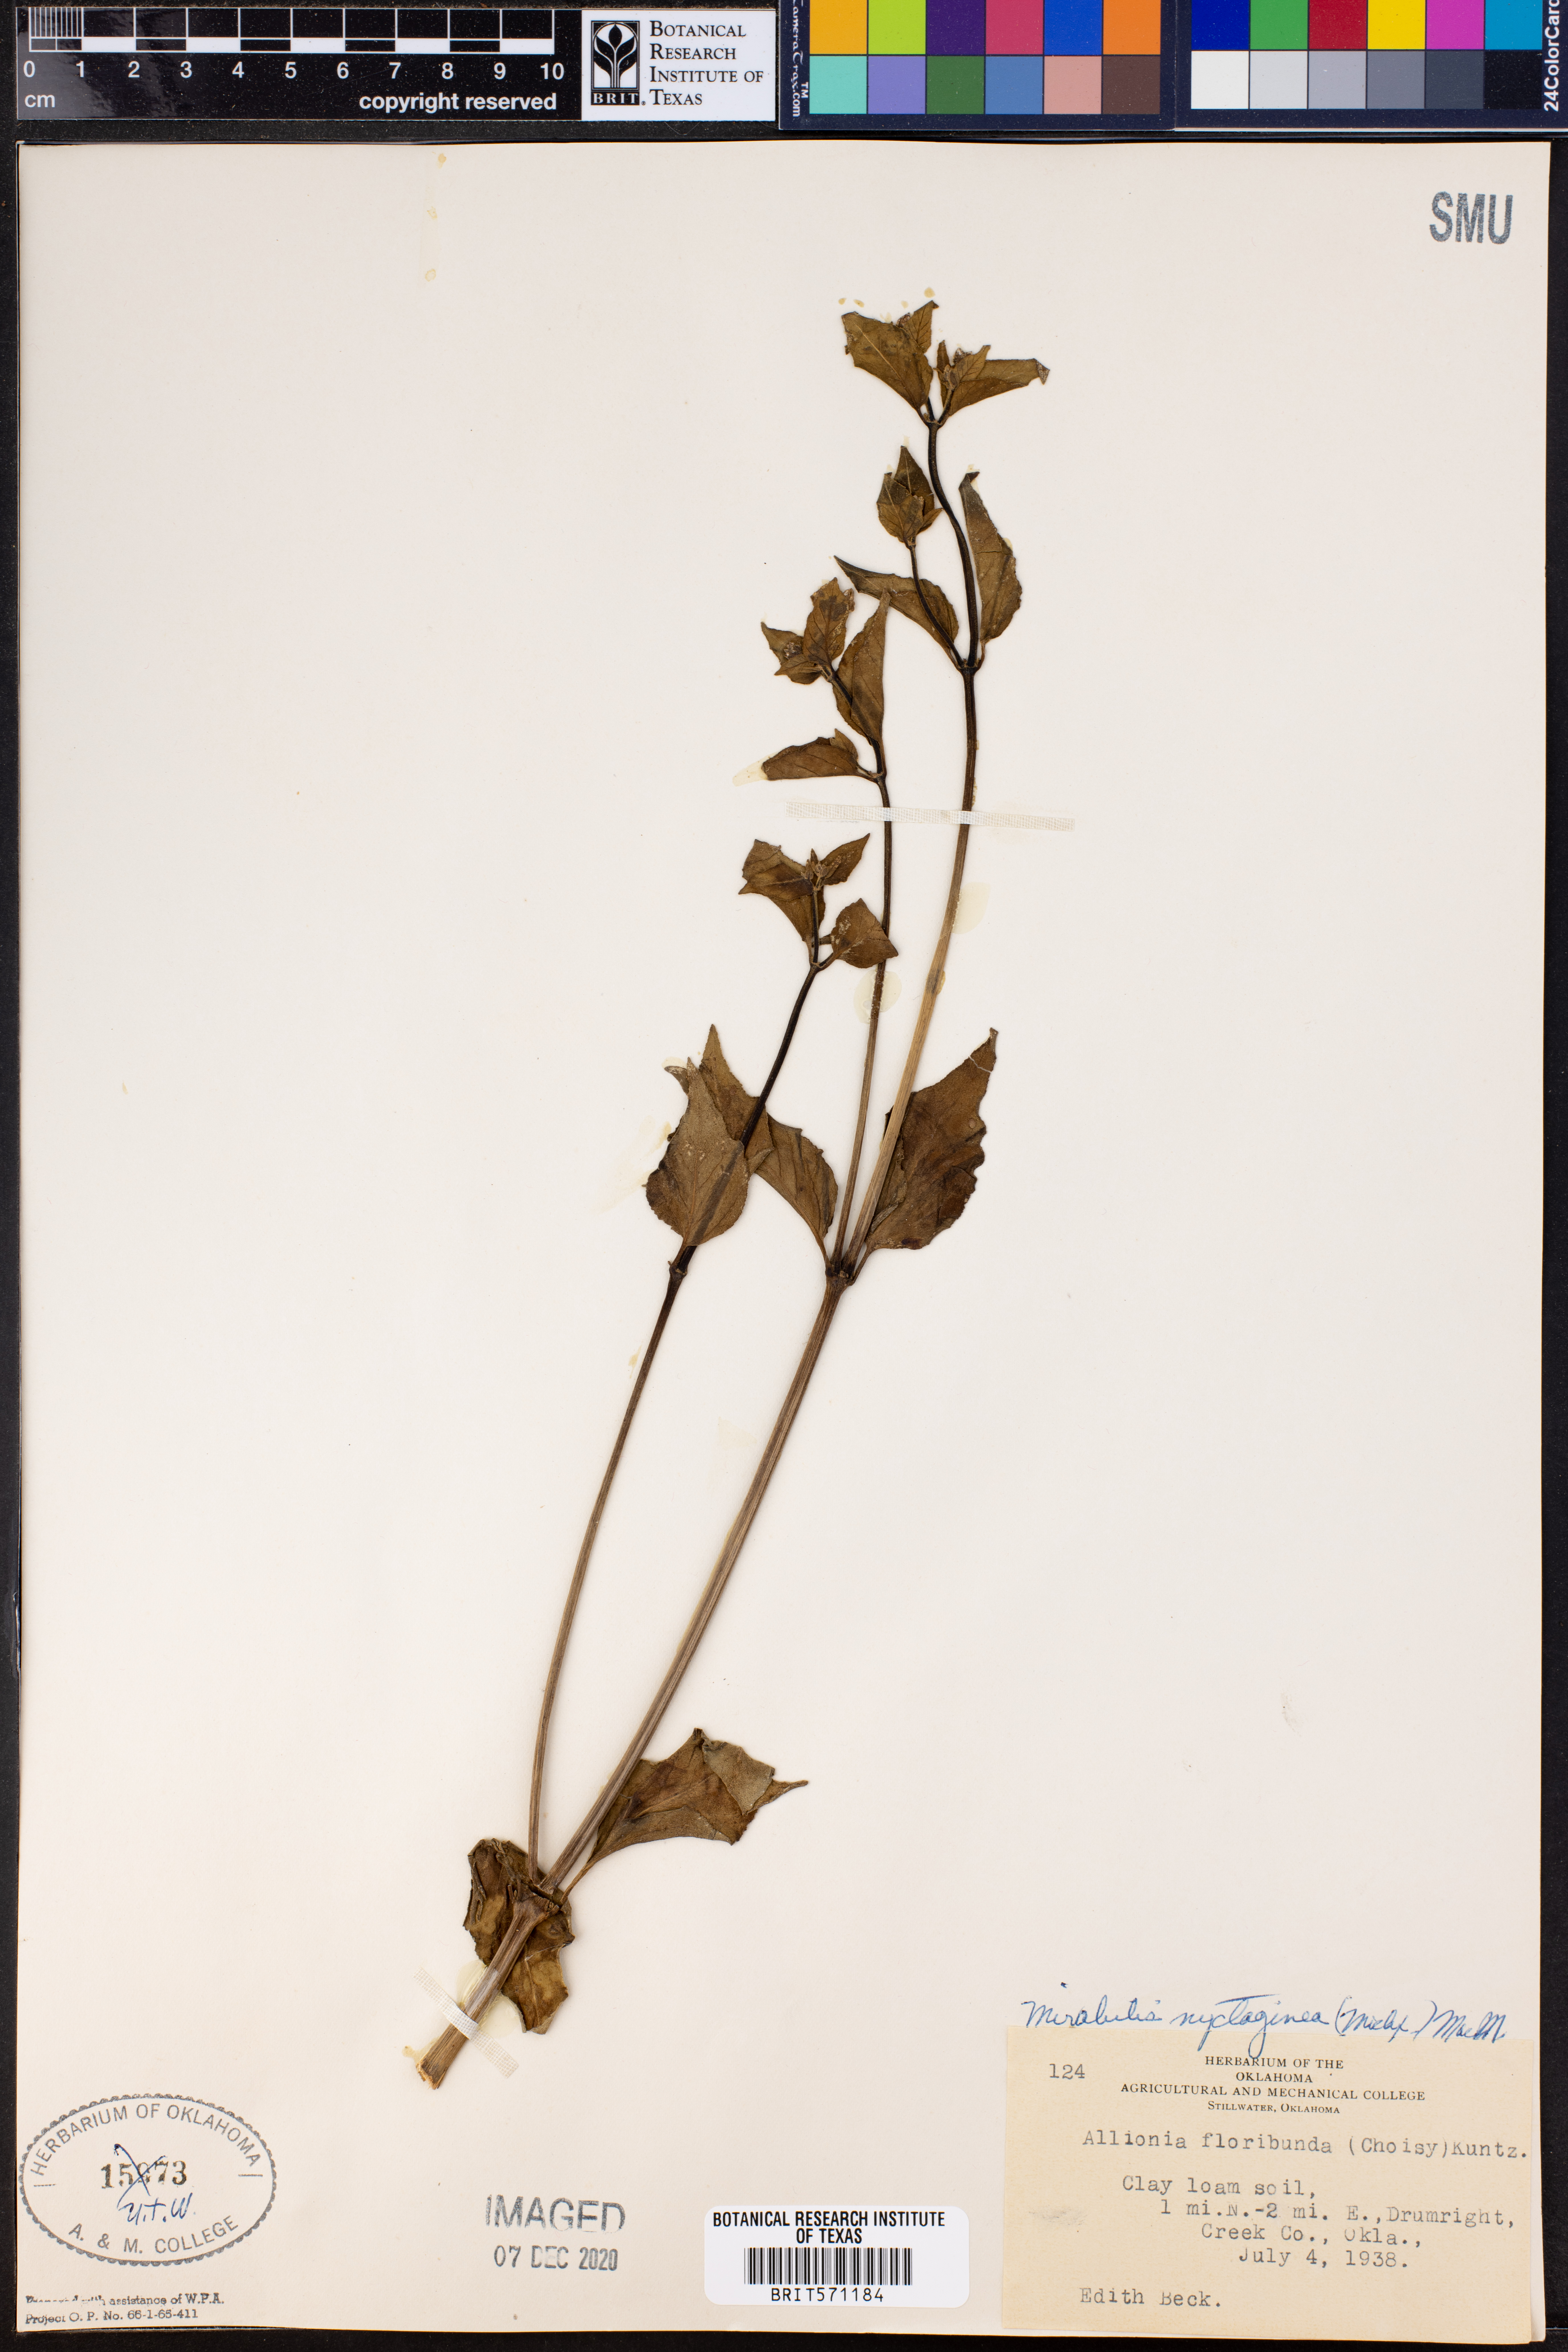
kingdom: Plantae
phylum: Tracheophyta
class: Magnoliopsida
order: Caryophyllales
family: Nyctaginaceae
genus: Mirabilis
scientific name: Mirabilis nyctaginea
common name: Umbrella wort
